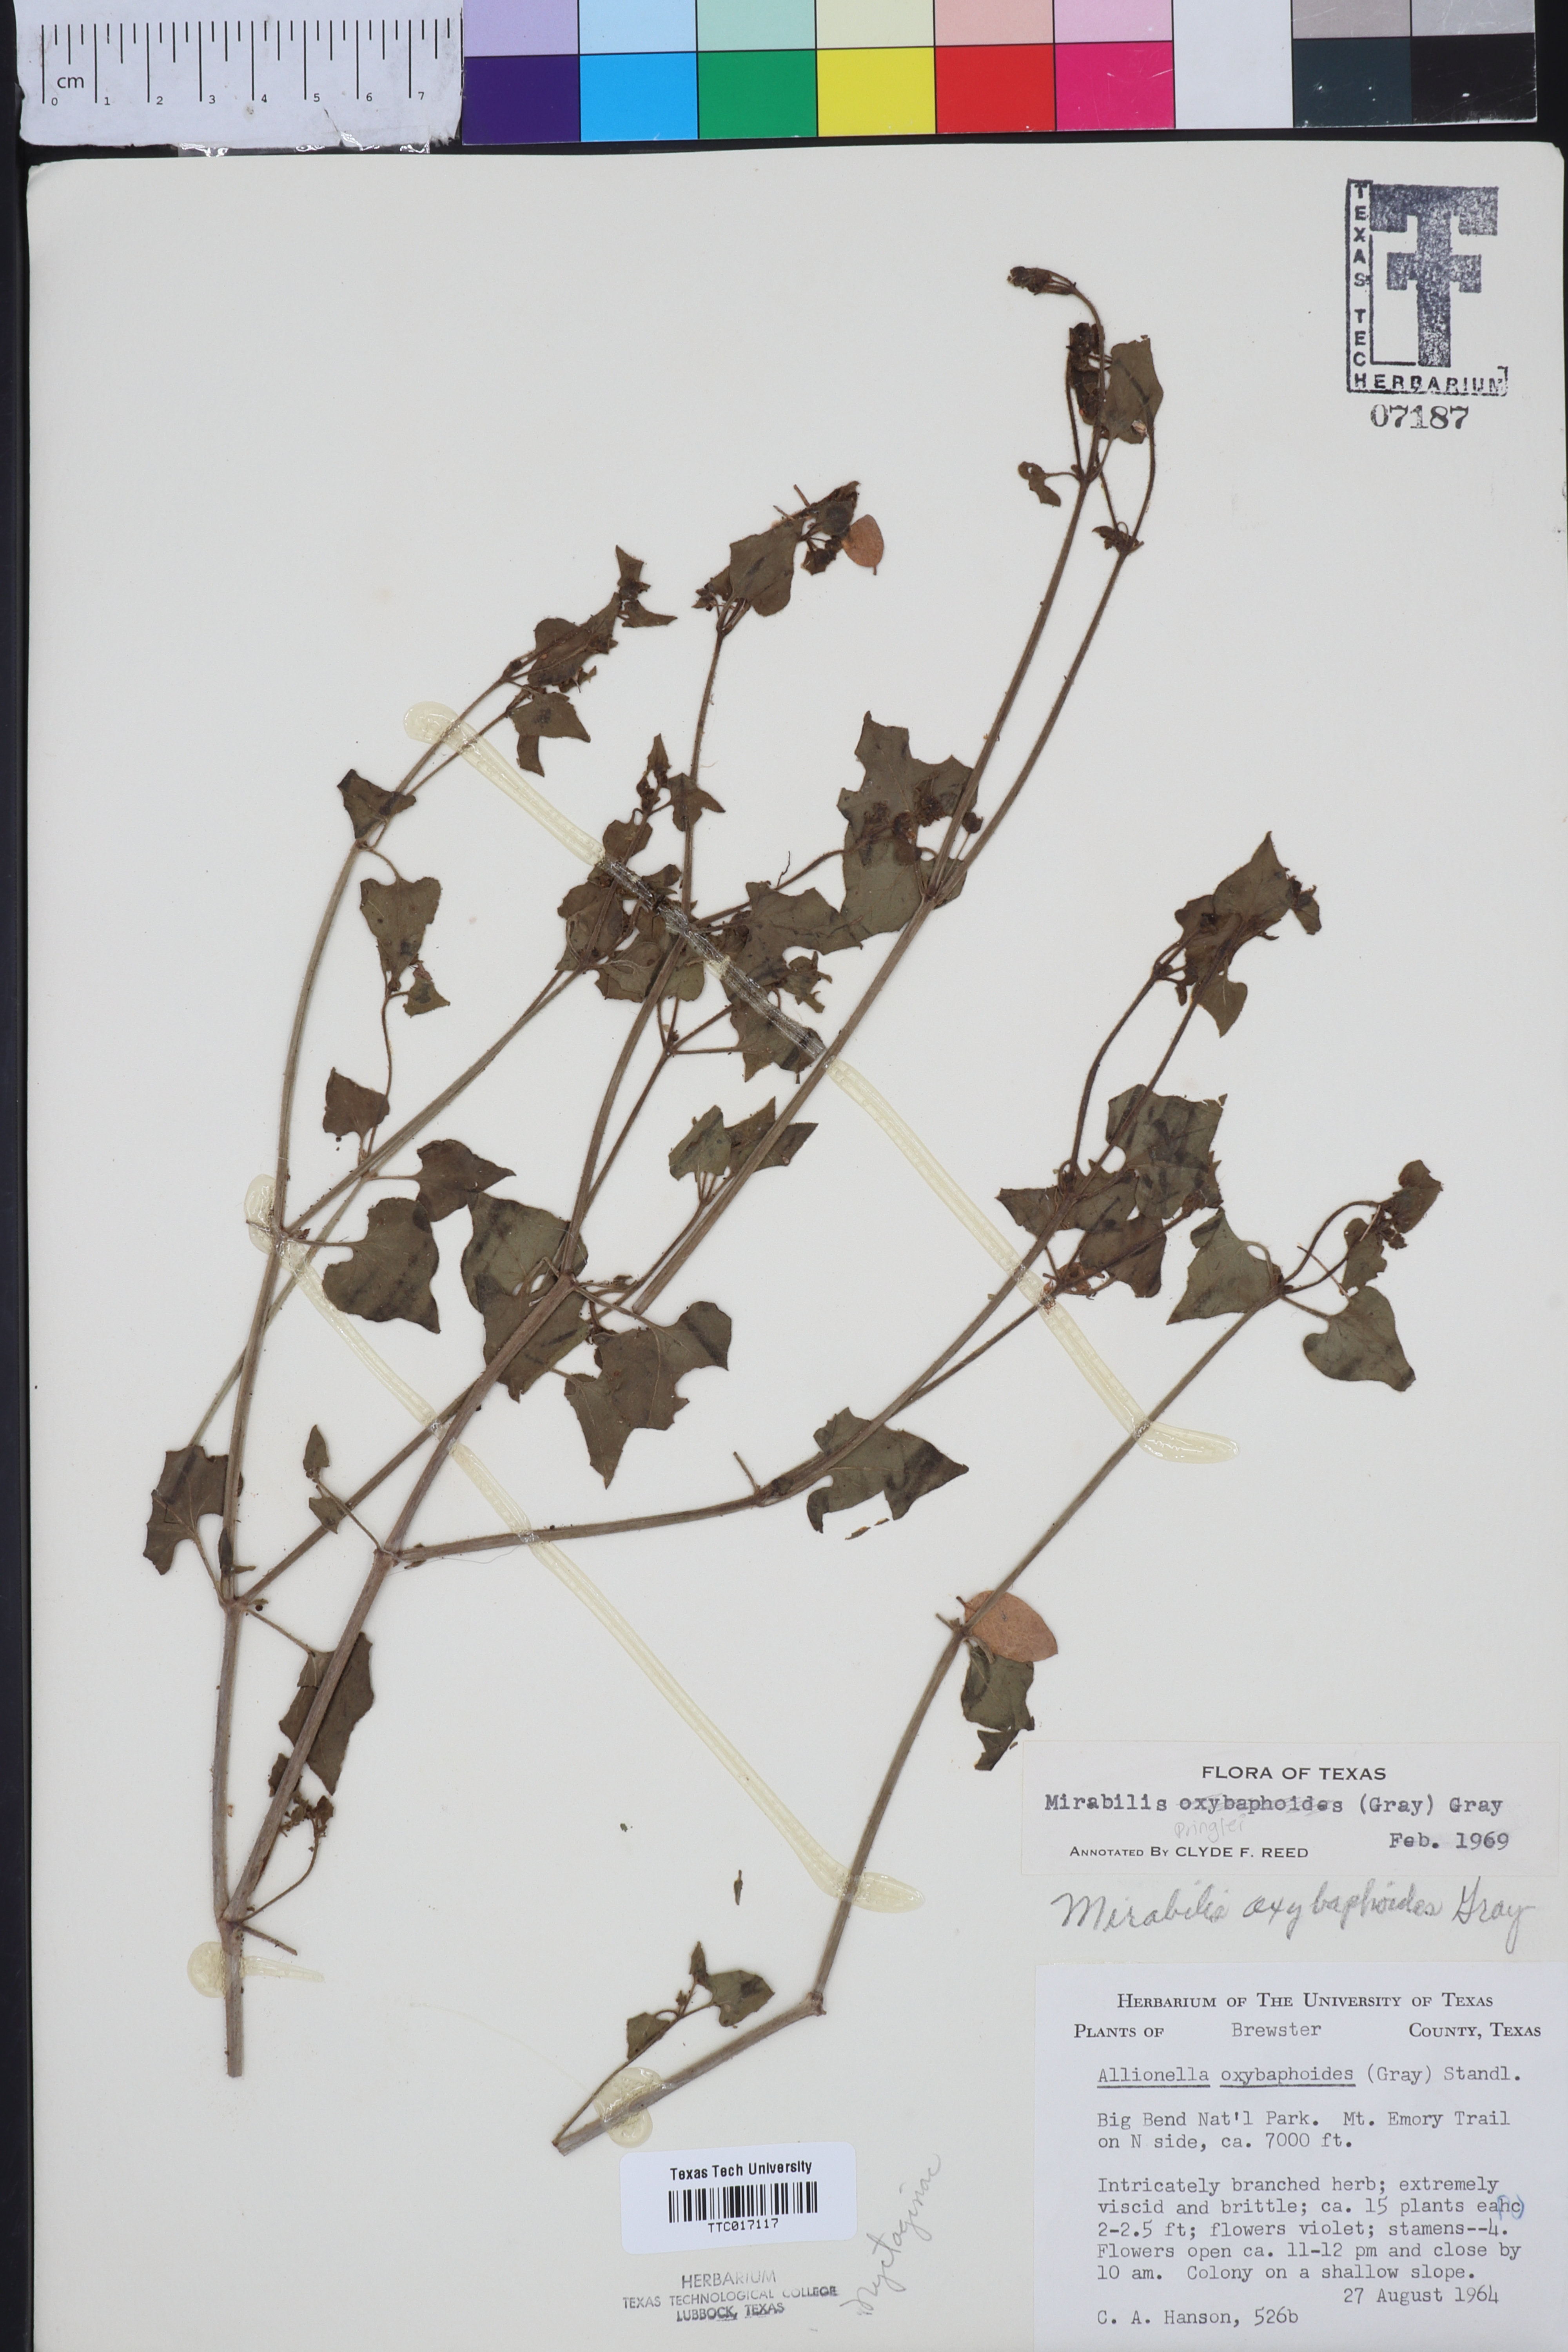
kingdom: Plantae
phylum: Tracheophyta
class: Magnoliopsida
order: Caryophyllales
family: Nyctaginaceae
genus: Mirabilis
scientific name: Mirabilis oxybaphoides
